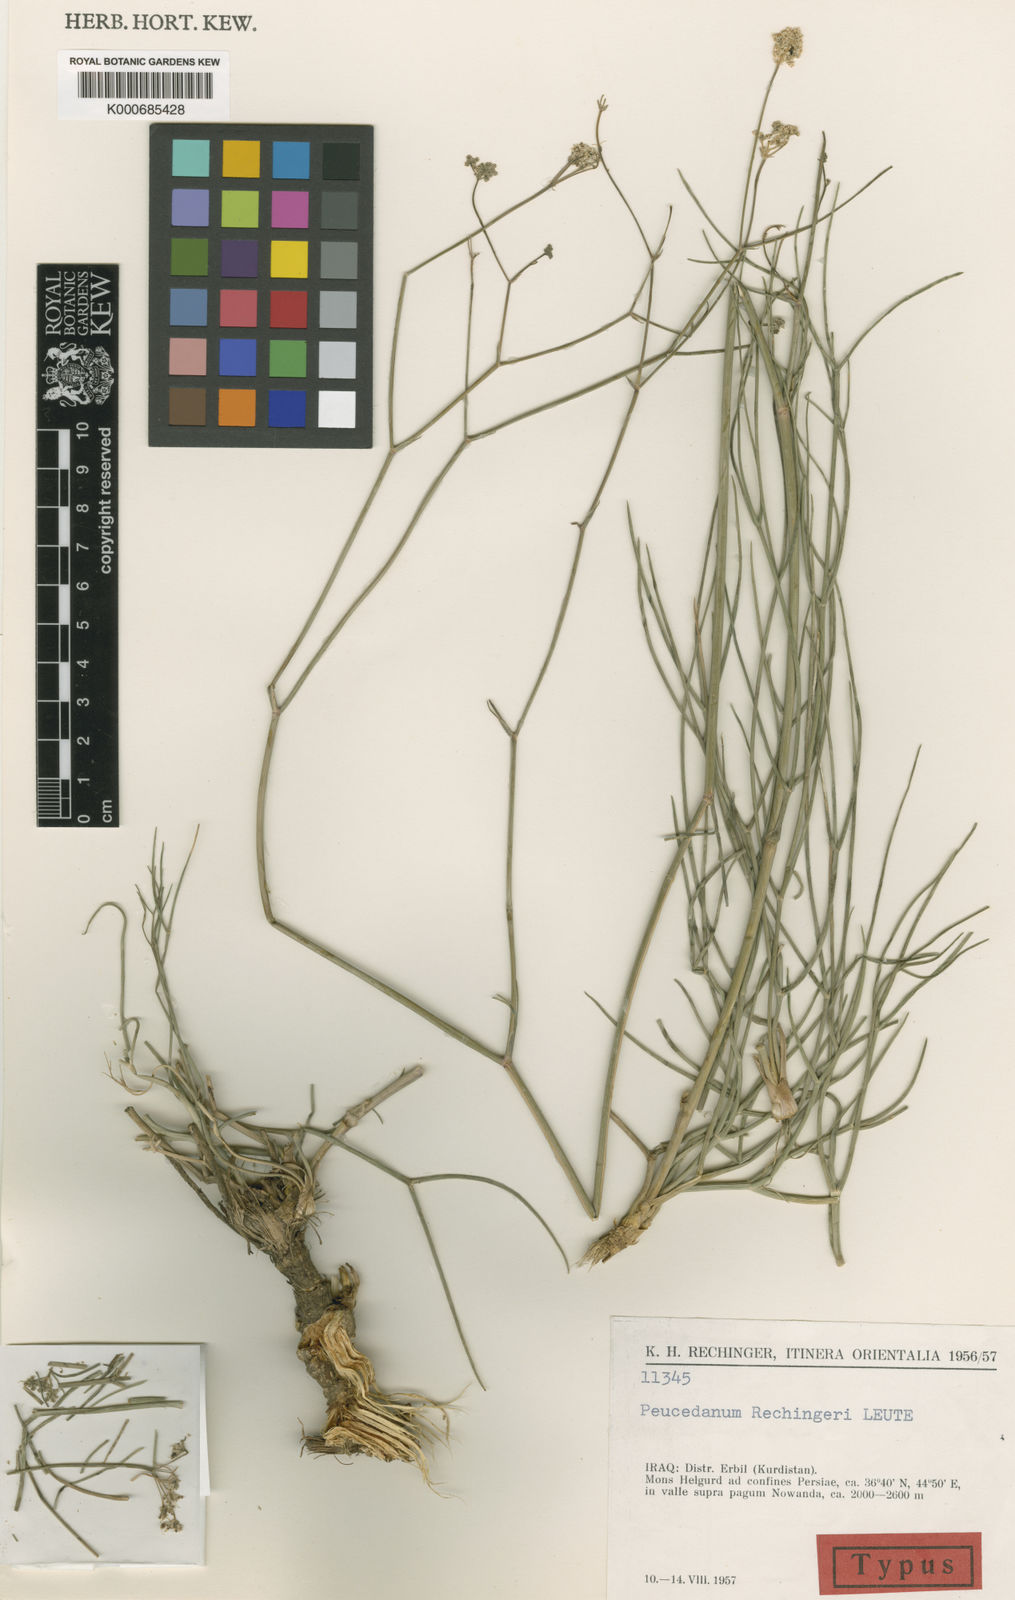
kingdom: Plantae
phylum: Tracheophyta
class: Magnoliopsida
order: Apiales
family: Apiaceae
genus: Leutea
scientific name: Leutea rechingeri
